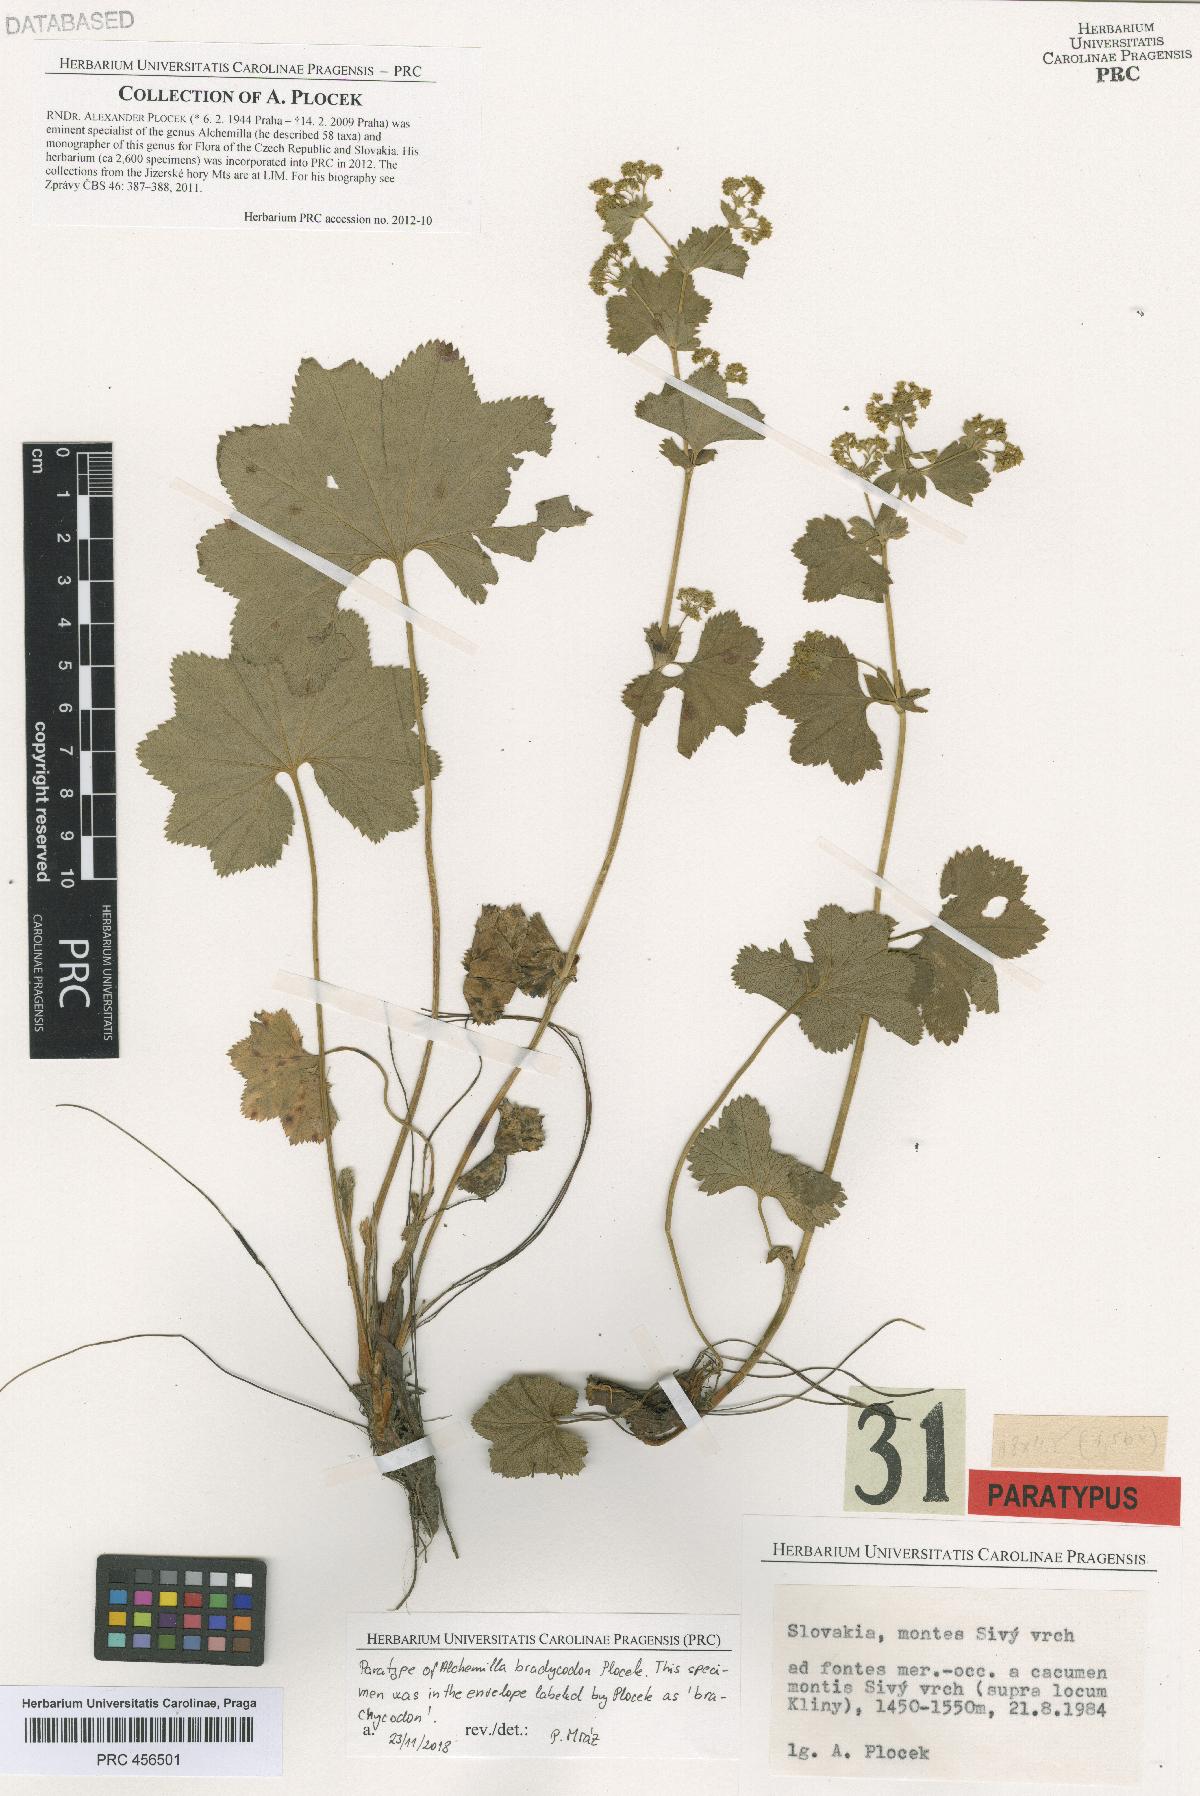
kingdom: Plantae
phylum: Tracheophyta
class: Magnoliopsida
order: Rosales
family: Rosaceae
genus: Alchemilla
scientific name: Alchemilla brachycodon
